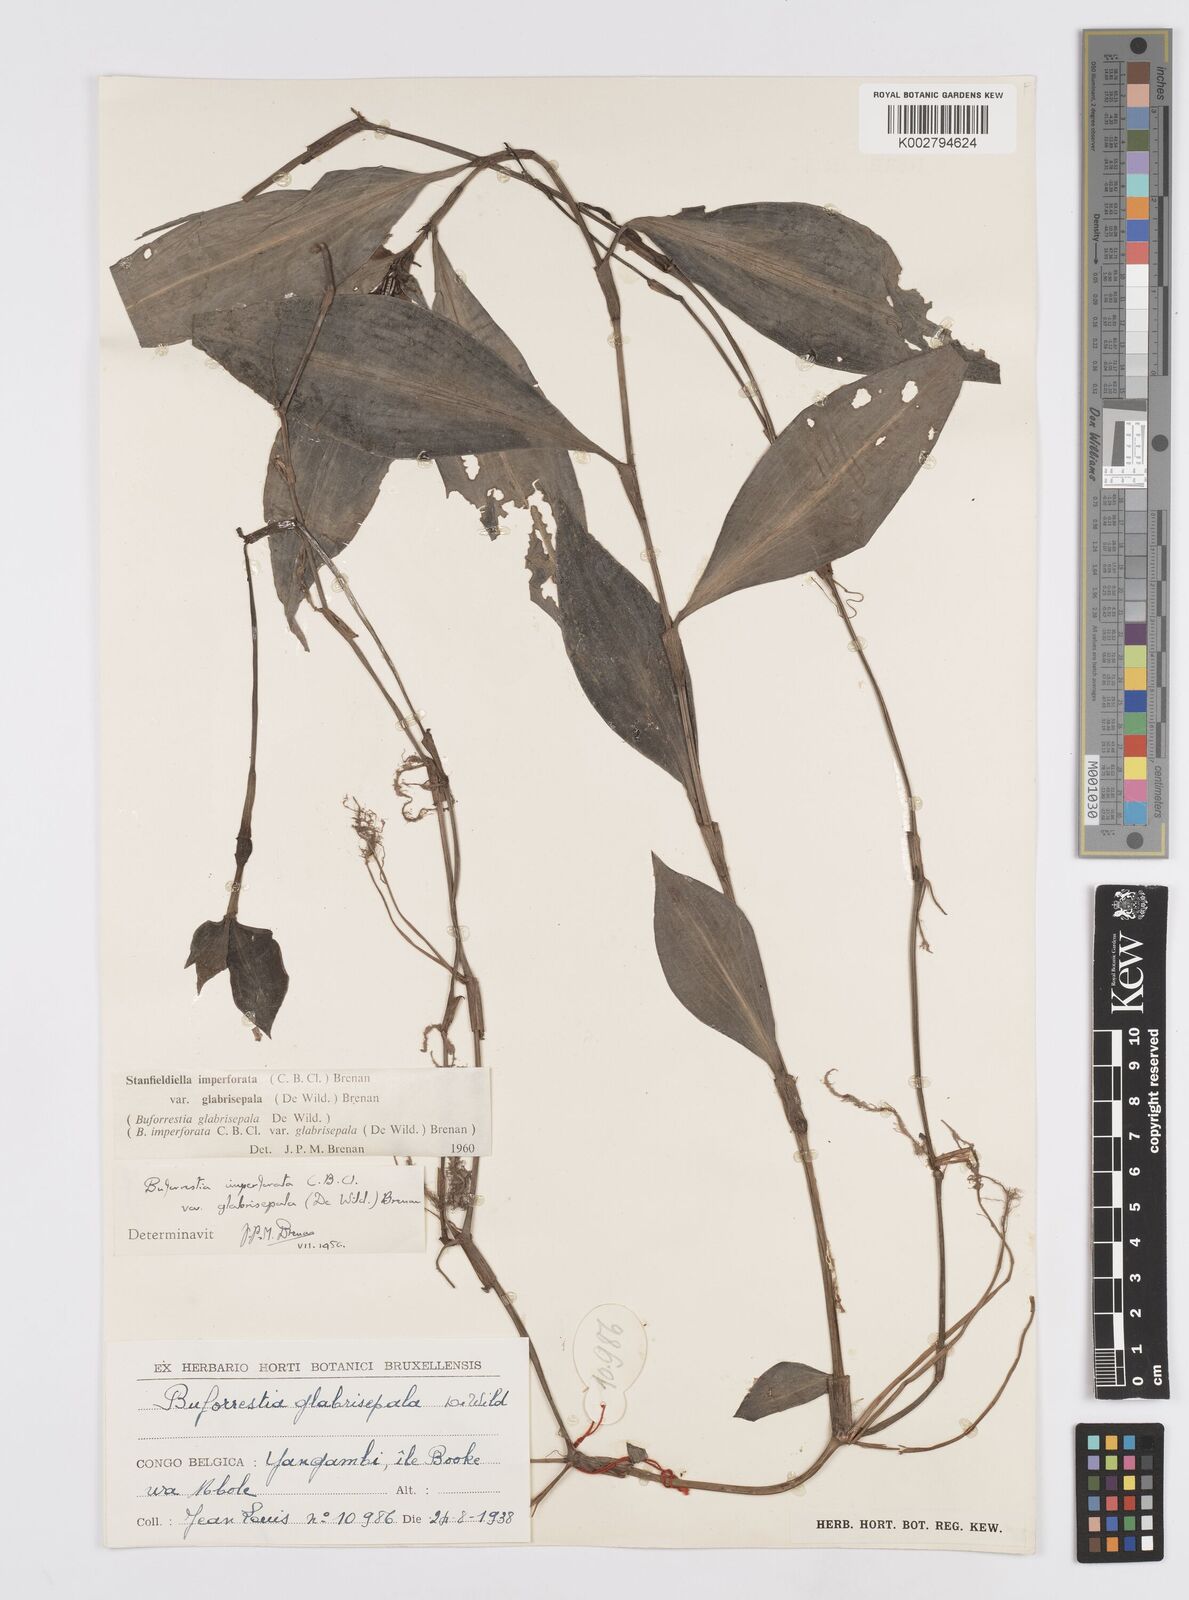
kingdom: Plantae
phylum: Tracheophyta
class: Liliopsida
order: Commelinales
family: Commelinaceae
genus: Stanfieldiella
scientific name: Stanfieldiella imperforata
